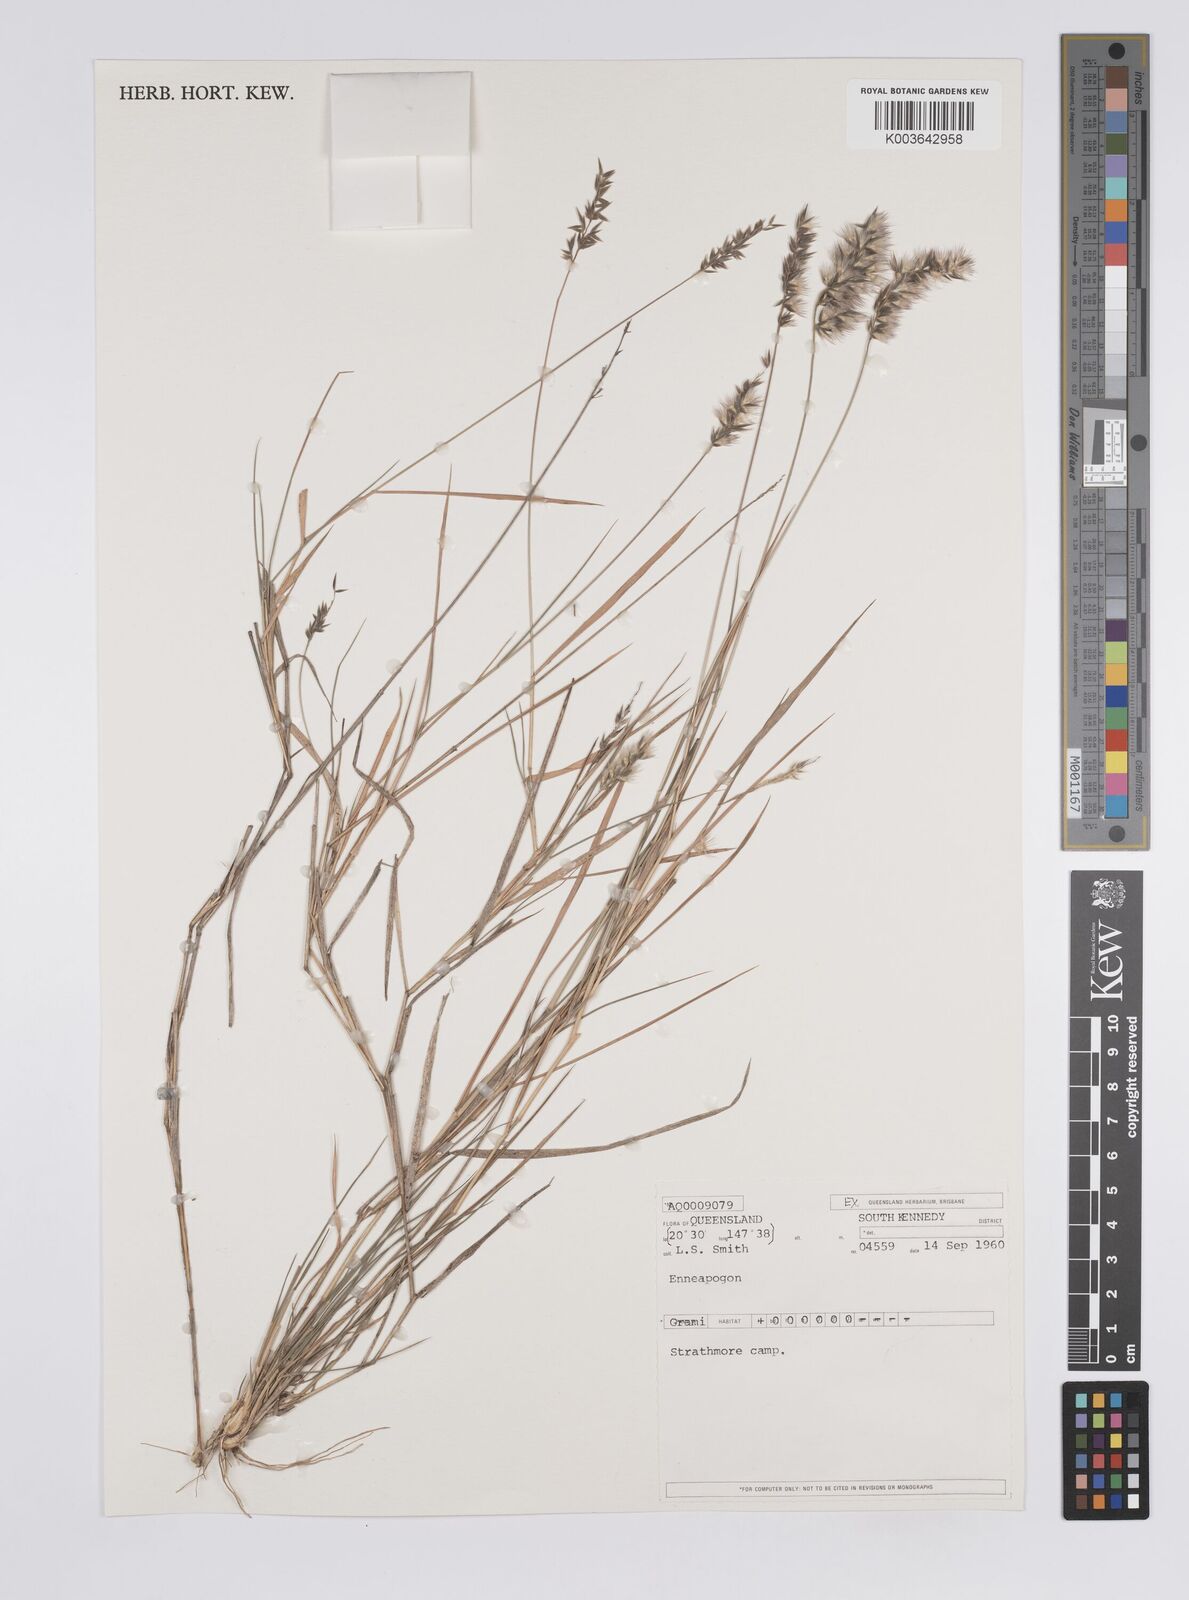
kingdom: Plantae
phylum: Tracheophyta
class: Liliopsida
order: Poales
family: Poaceae
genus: Enneapogon
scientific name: Enneapogon gracilis
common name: Slender bottle-washers
